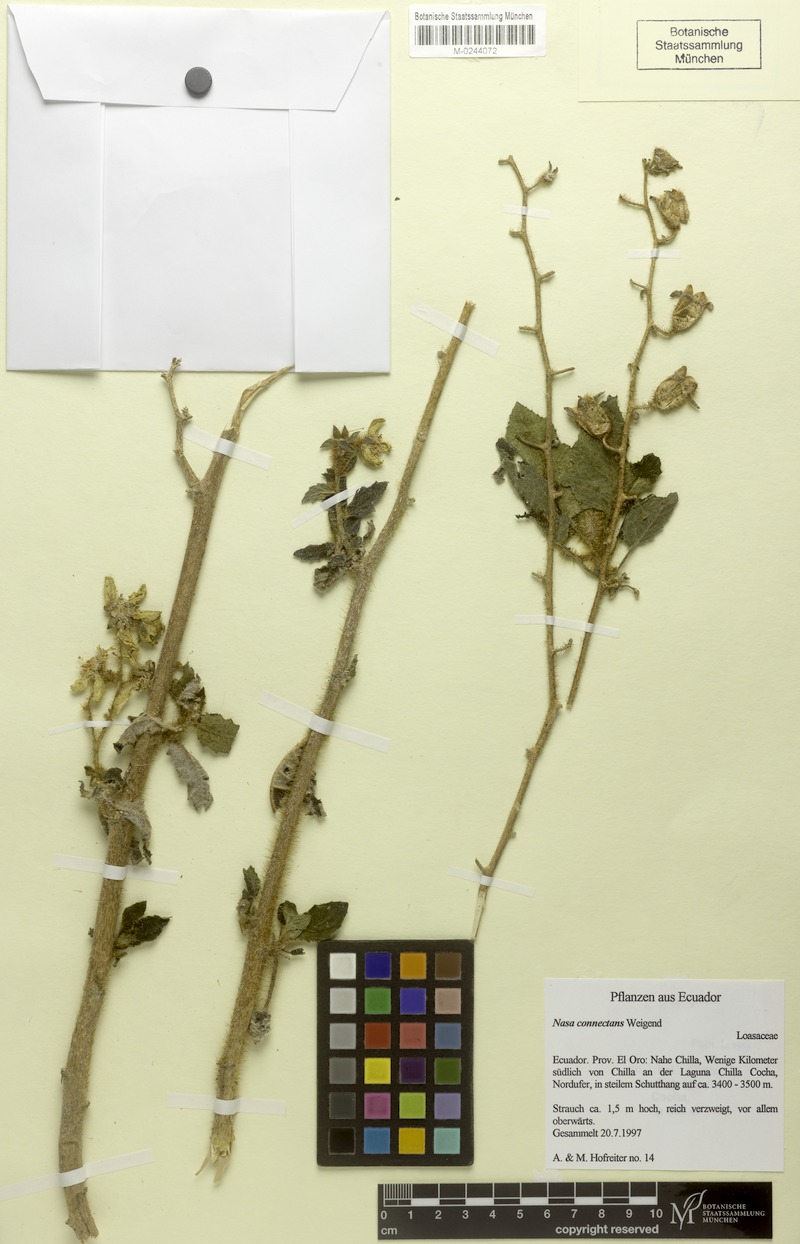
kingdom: Plantae
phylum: Tracheophyta
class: Magnoliopsida
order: Cornales
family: Loasaceae
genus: Nasa
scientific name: Nasa connectans
